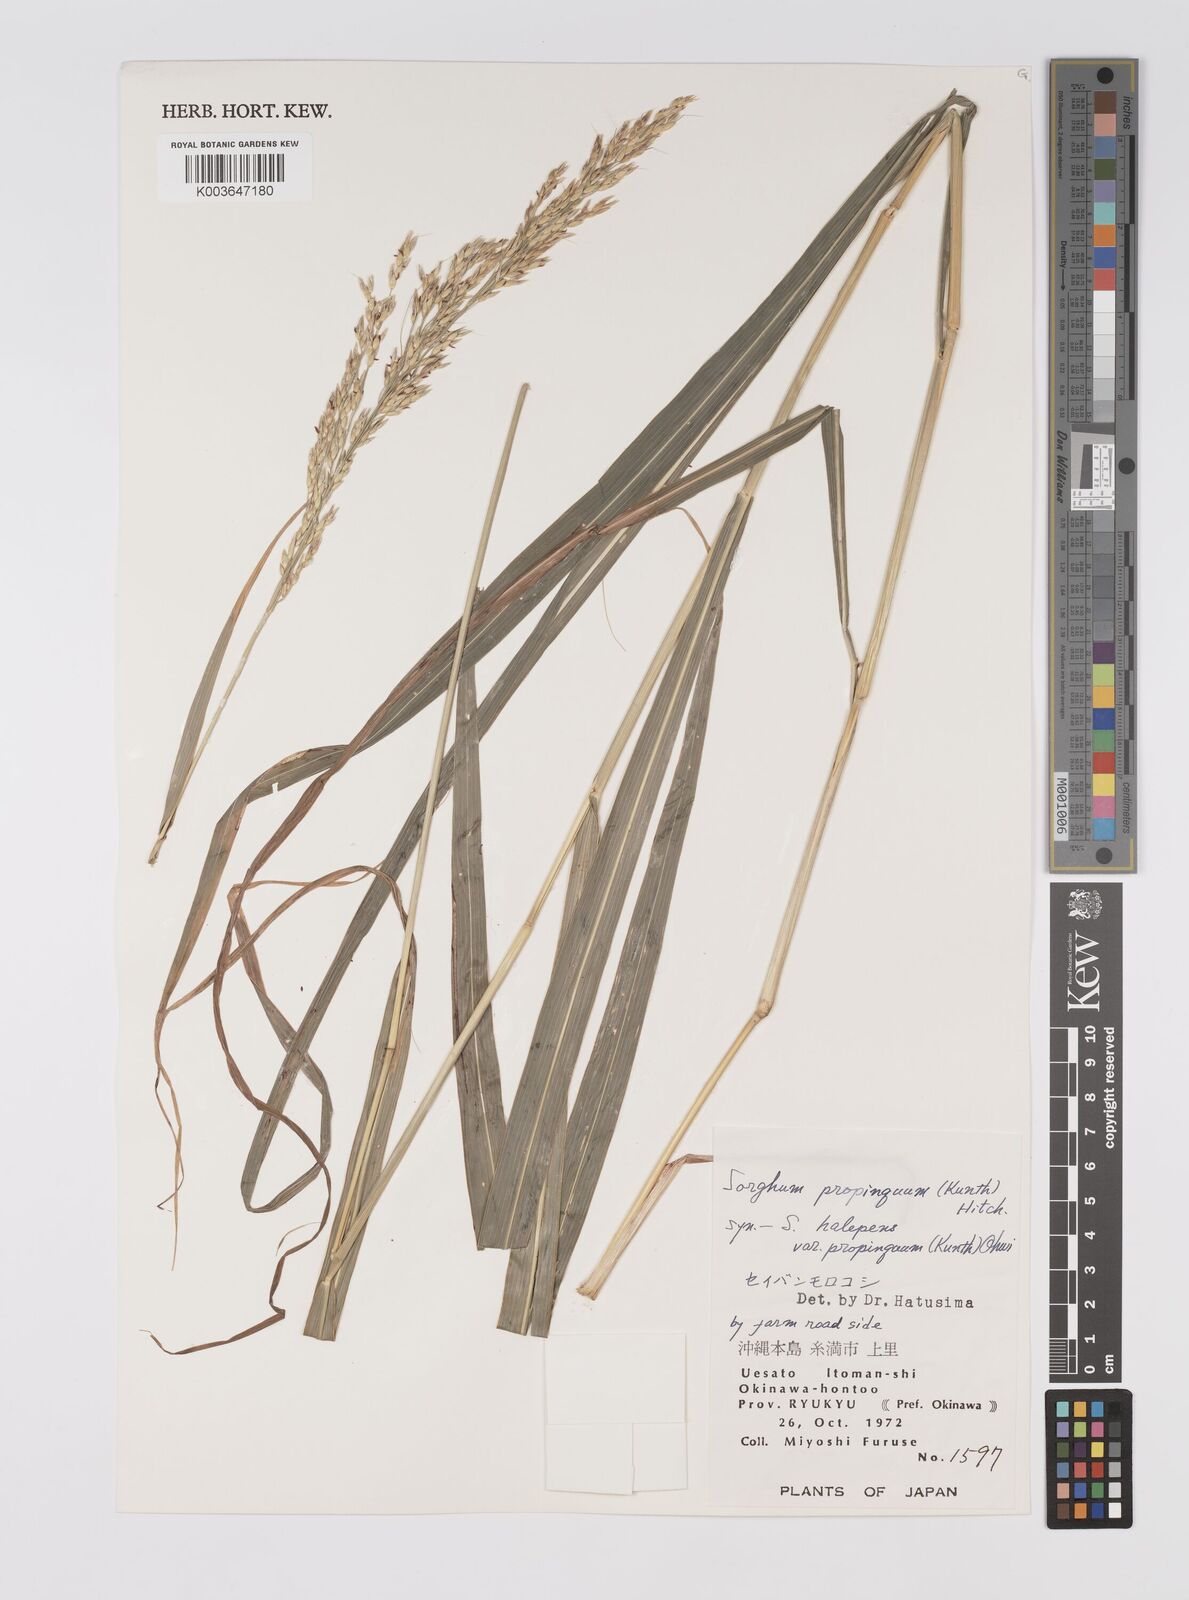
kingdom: Plantae
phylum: Tracheophyta
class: Liliopsida
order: Poales
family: Poaceae
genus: Sorghum
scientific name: Sorghum propinquum
